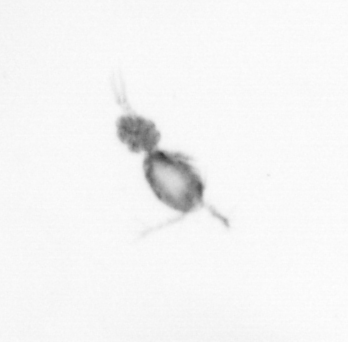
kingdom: Animalia
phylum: Arthropoda
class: Copepoda
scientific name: Copepoda
